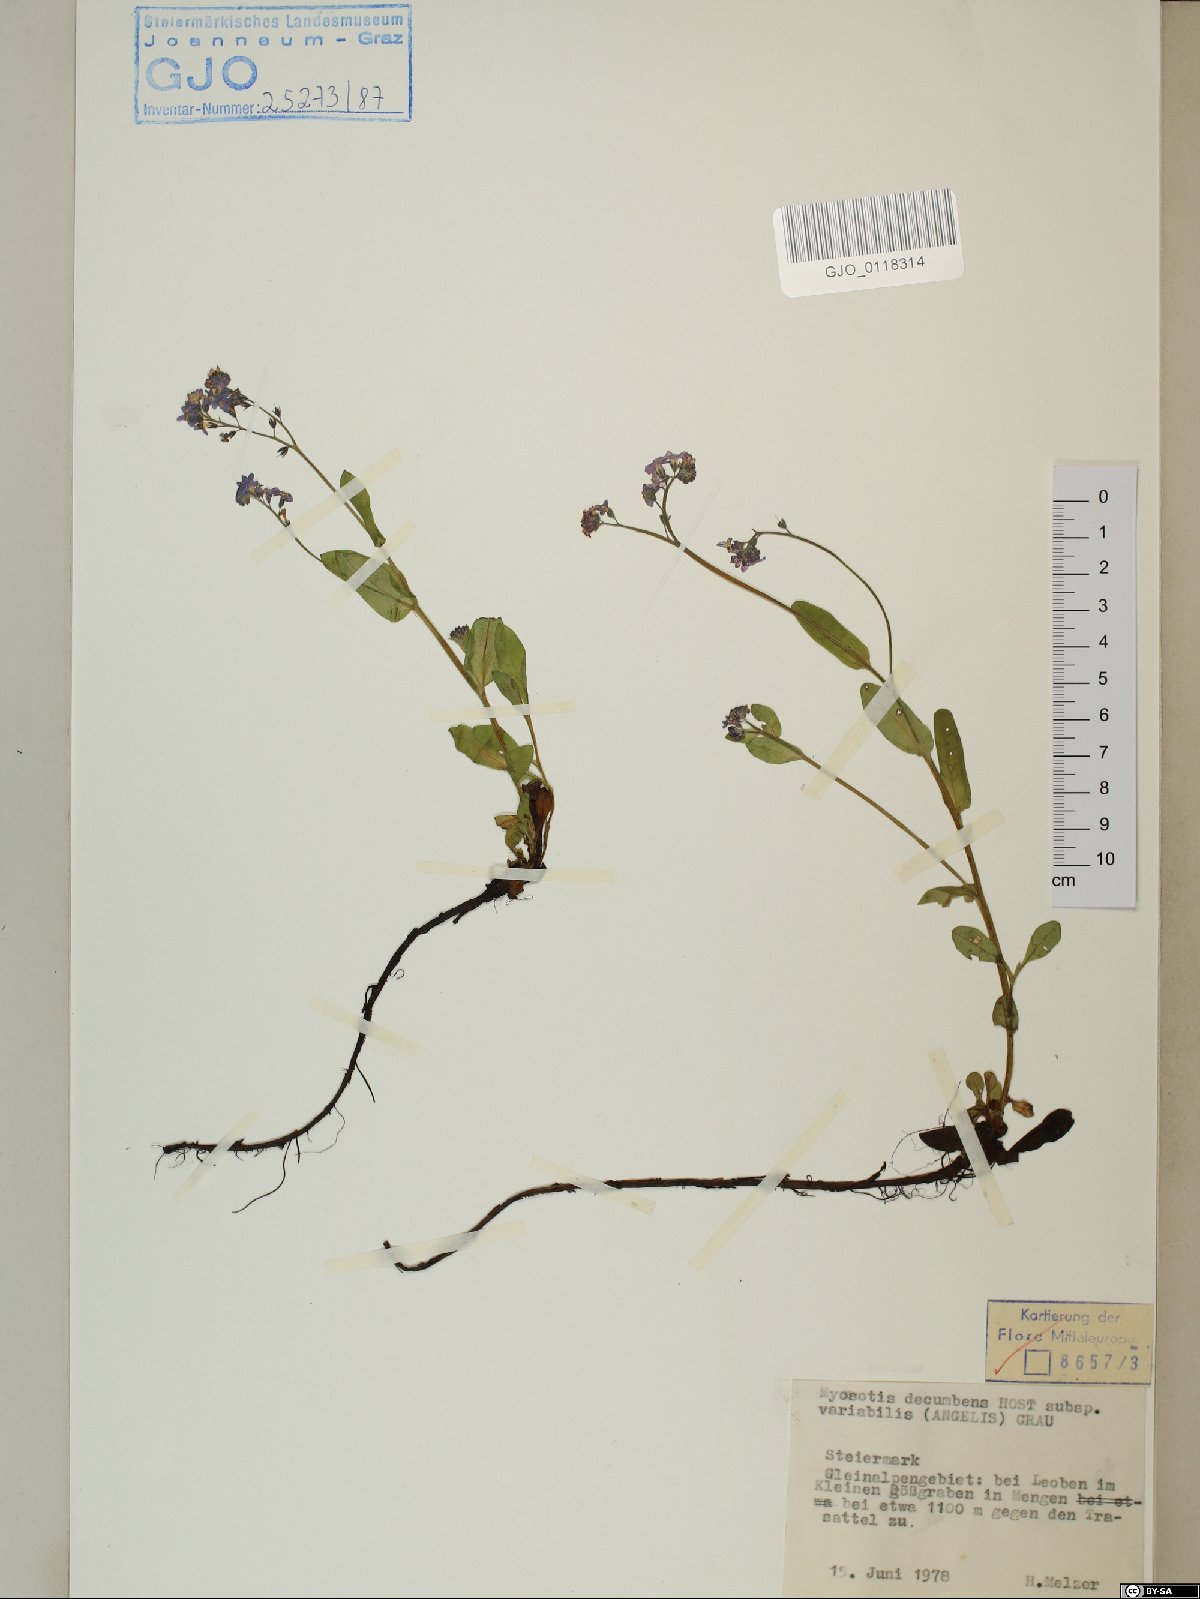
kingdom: Plantae
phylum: Tracheophyta
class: Magnoliopsida
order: Boraginales
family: Boraginaceae
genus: Myosotis
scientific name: Myosotis decumbens
